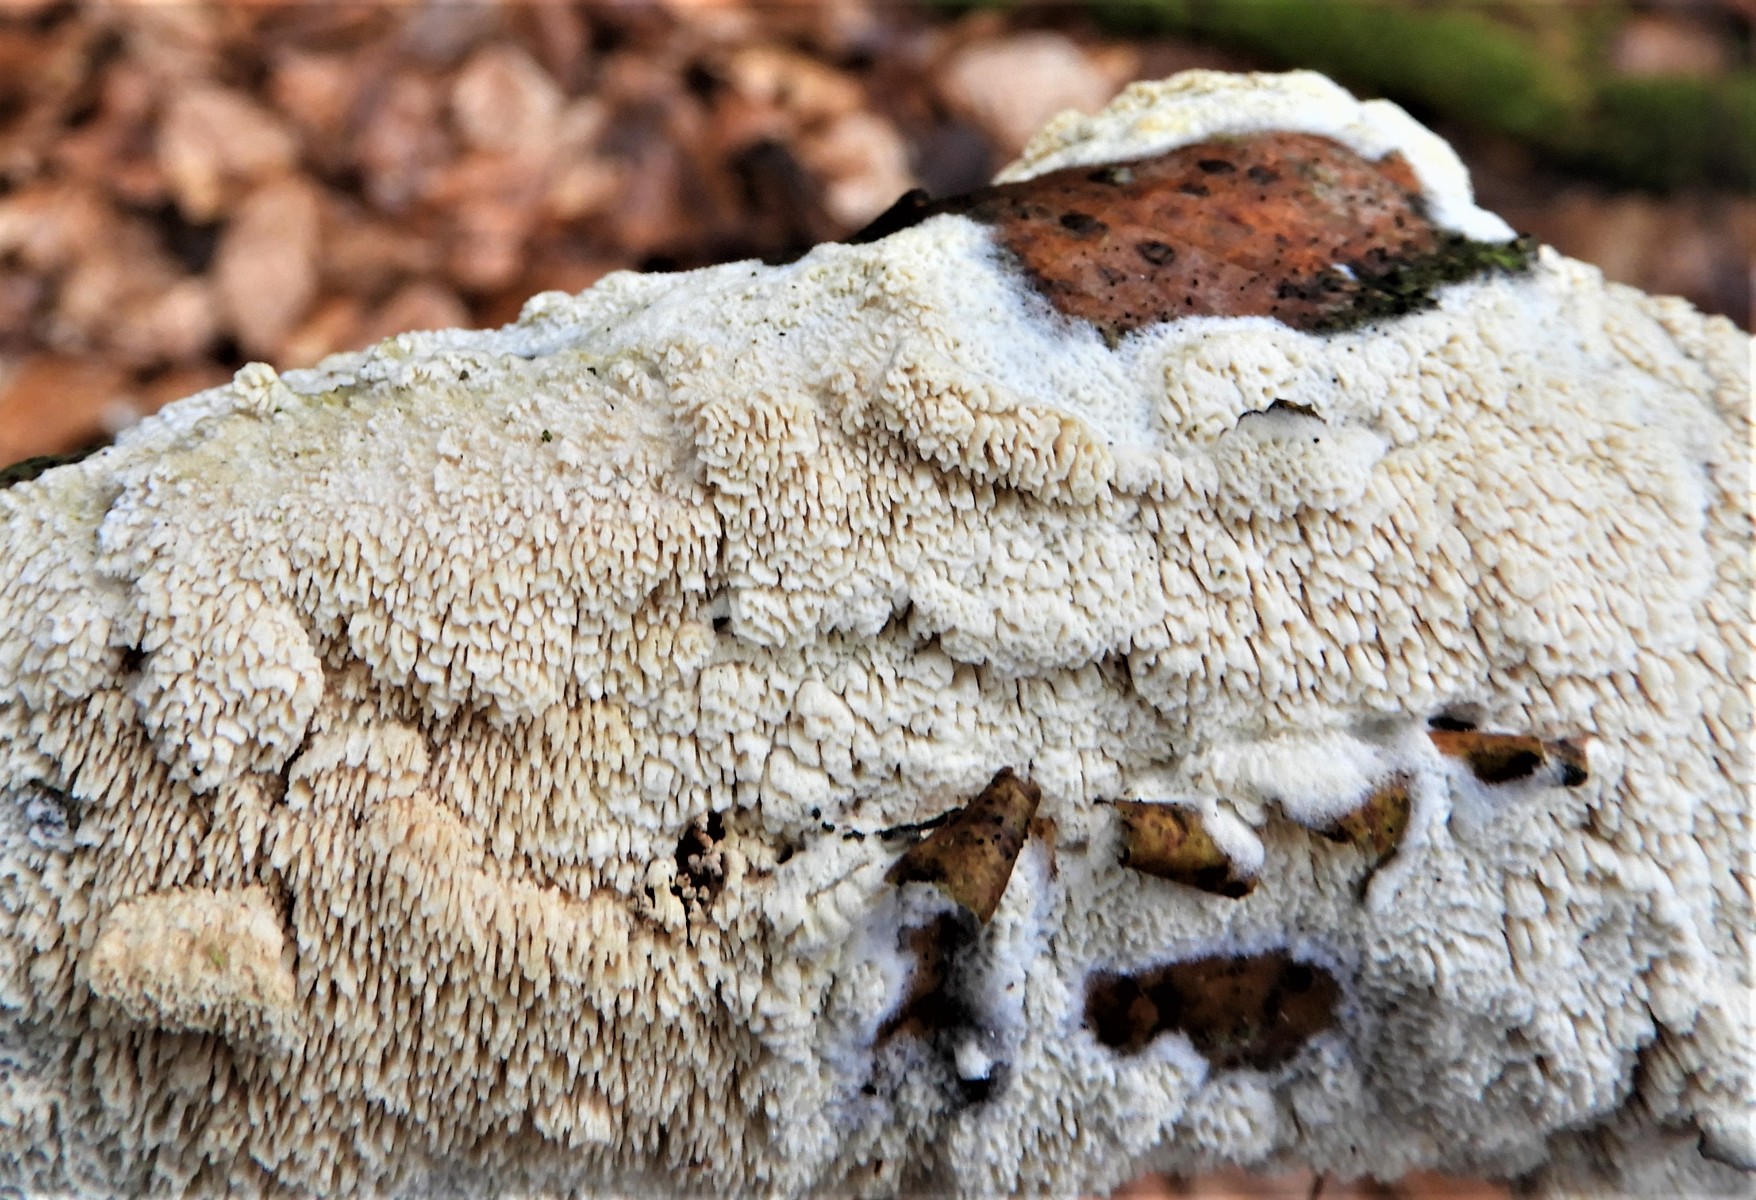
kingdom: Fungi
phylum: Basidiomycota
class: Agaricomycetes
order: Hymenochaetales
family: Schizoporaceae
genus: Schizopora
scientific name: Schizopora paradoxa
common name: hvid tandsvamp
